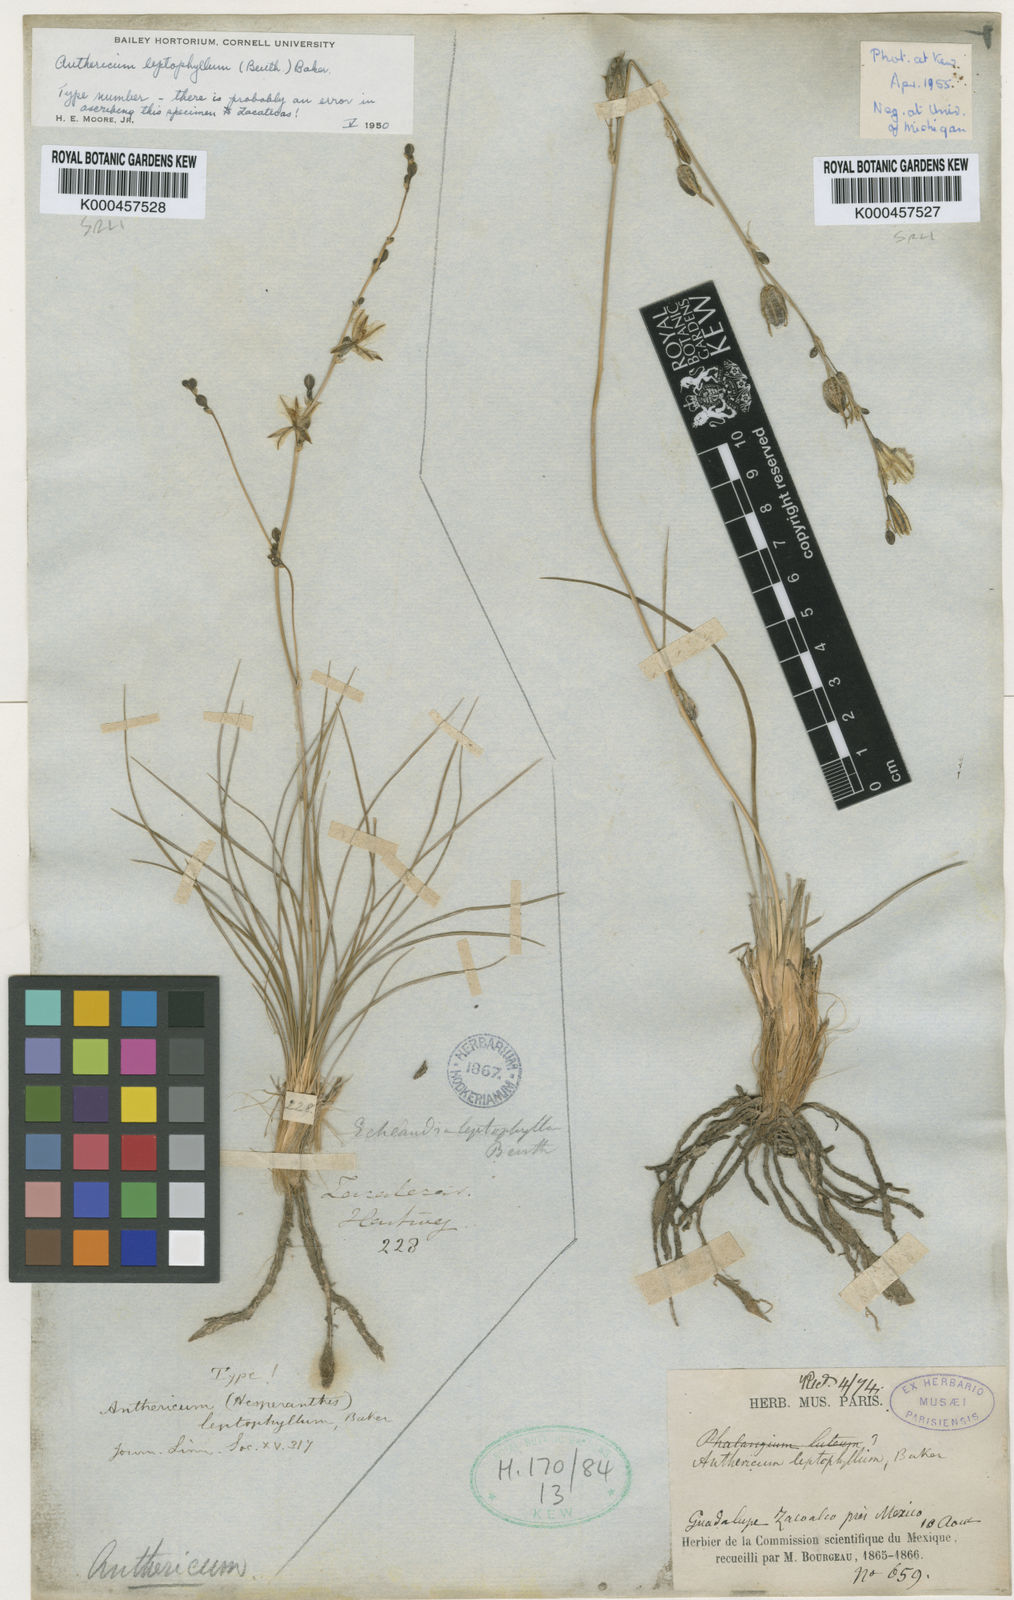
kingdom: Plantae
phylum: Tracheophyta
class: Liliopsida
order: Asparagales
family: Asparagaceae
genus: Echeandia
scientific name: Echeandia flavescens
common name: Amberlily
